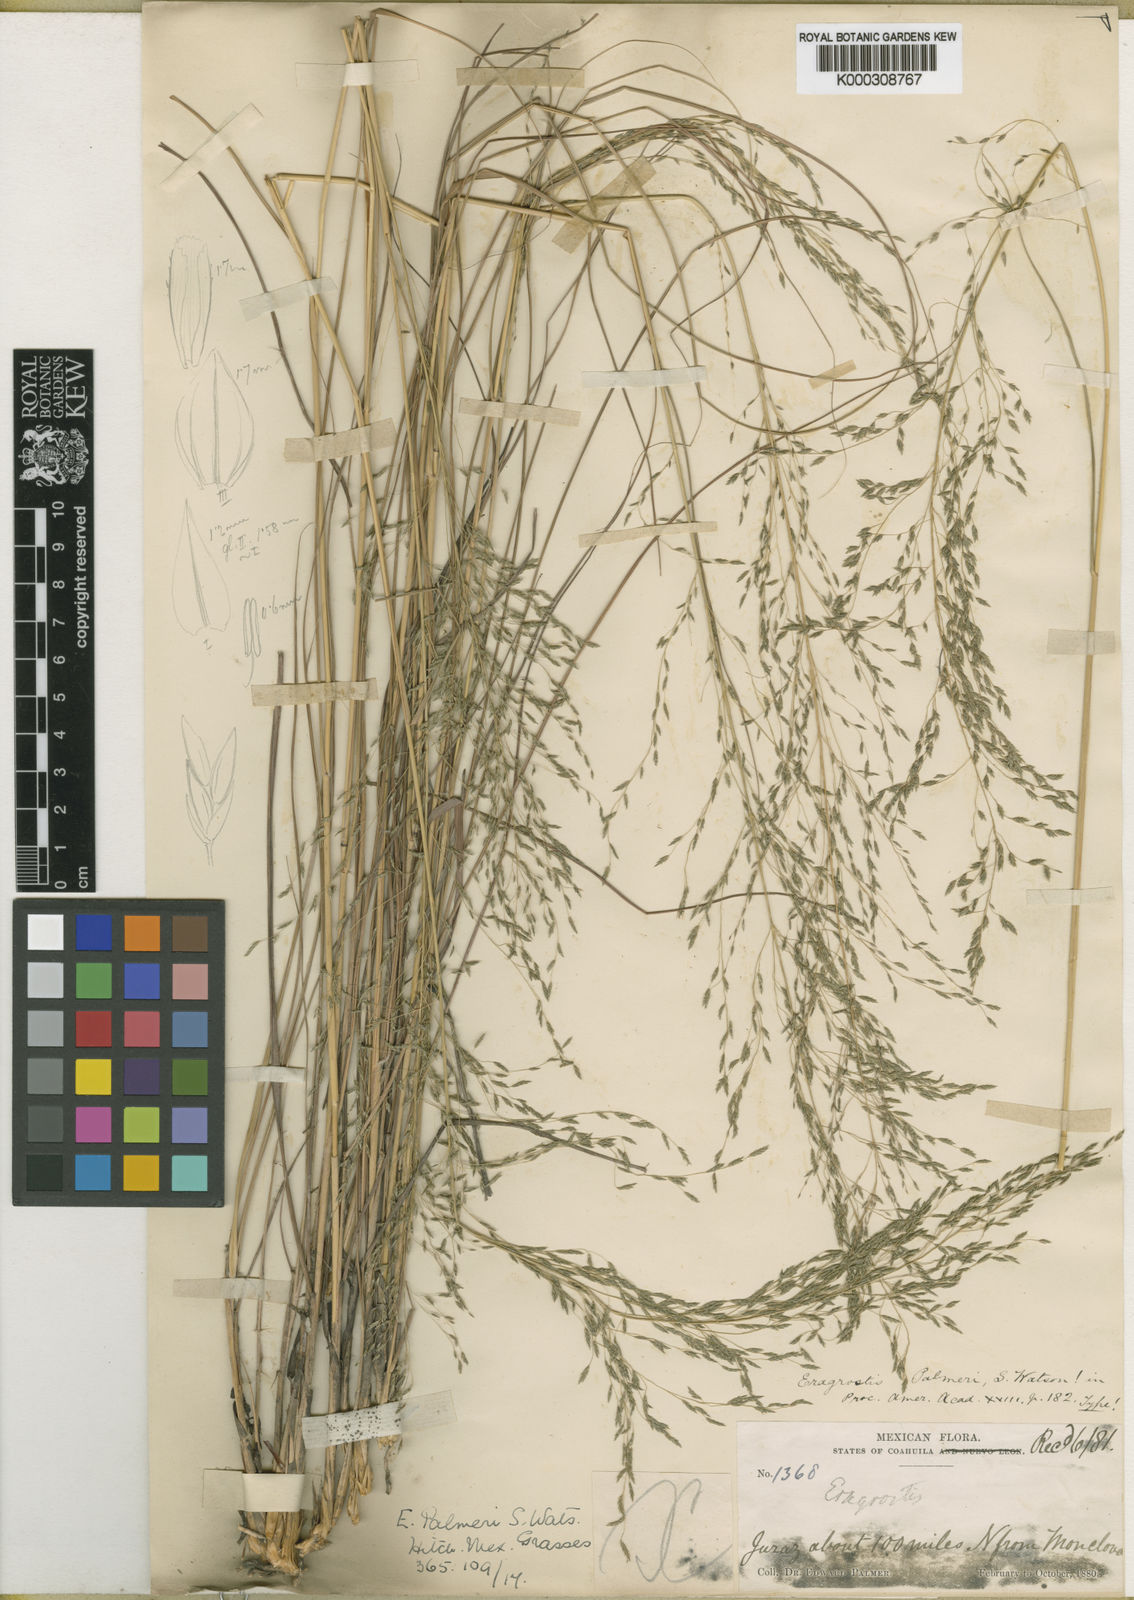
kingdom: Plantae
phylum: Tracheophyta
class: Liliopsida
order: Poales
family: Poaceae
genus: Eragrostis
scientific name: Eragrostis palmeri
